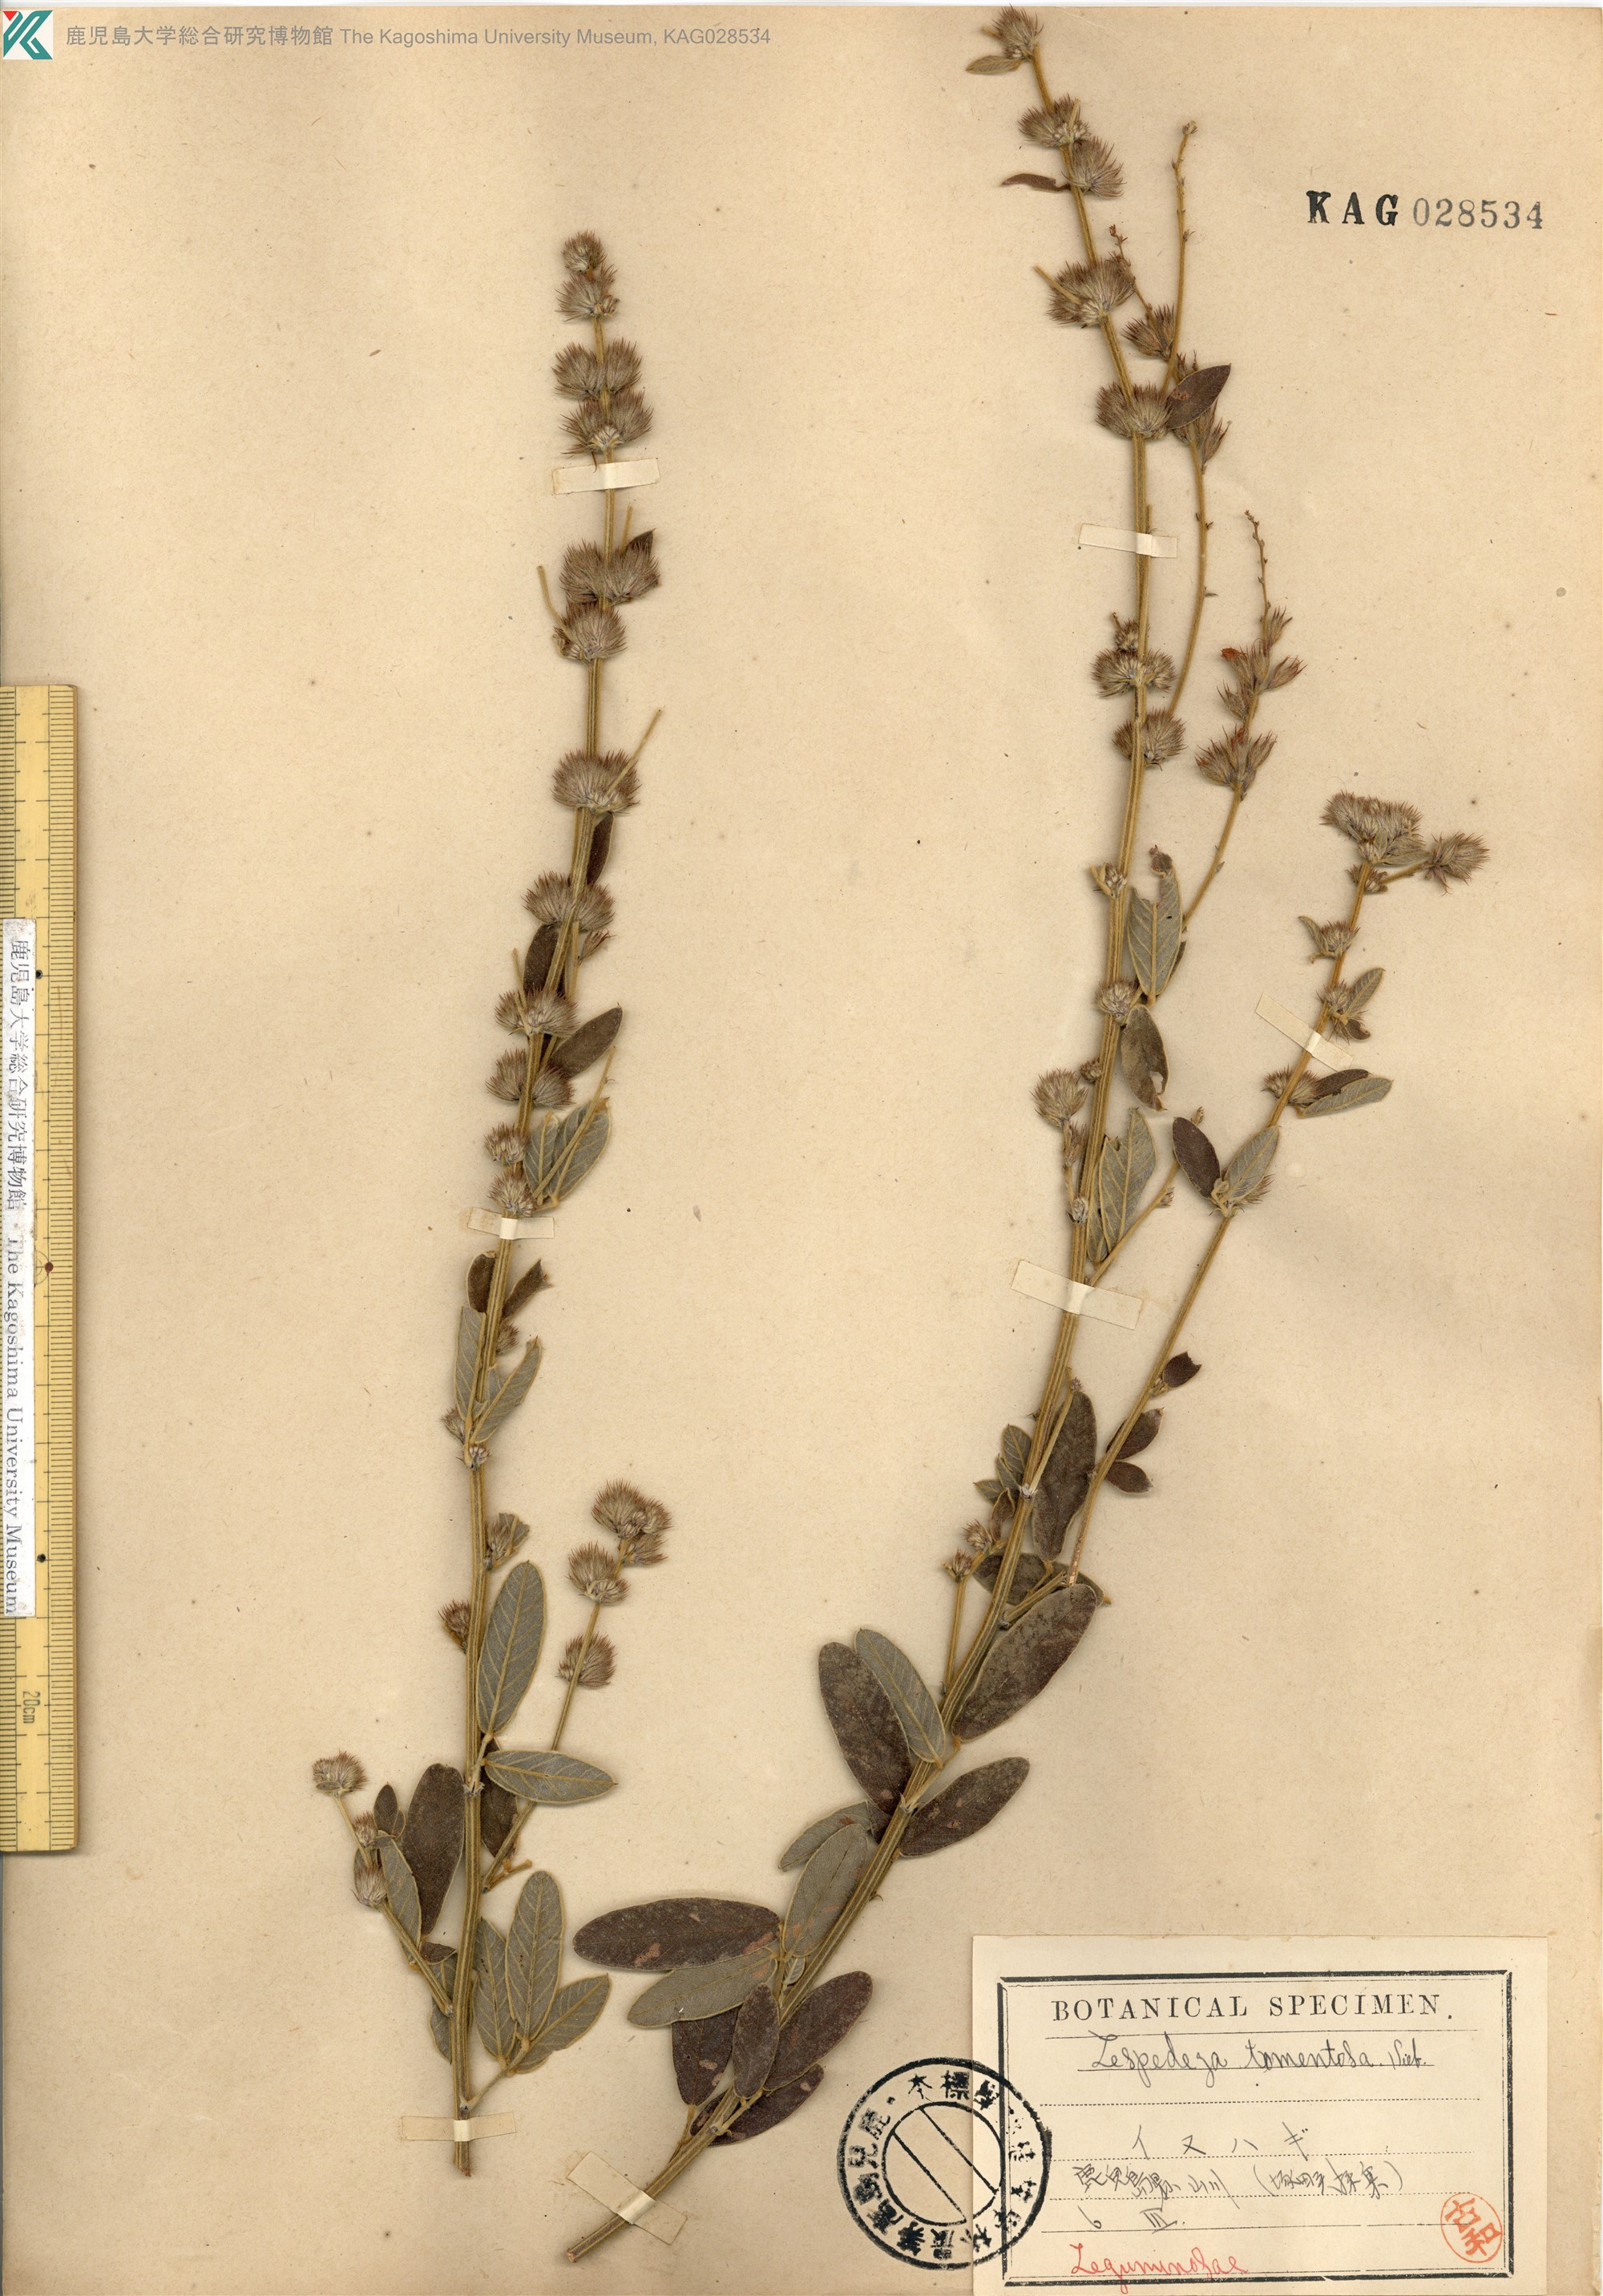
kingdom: Plantae
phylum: Tracheophyta
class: Magnoliopsida
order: Fabales
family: Fabaceae
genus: Lespedeza
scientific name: Lespedeza tomentosa
